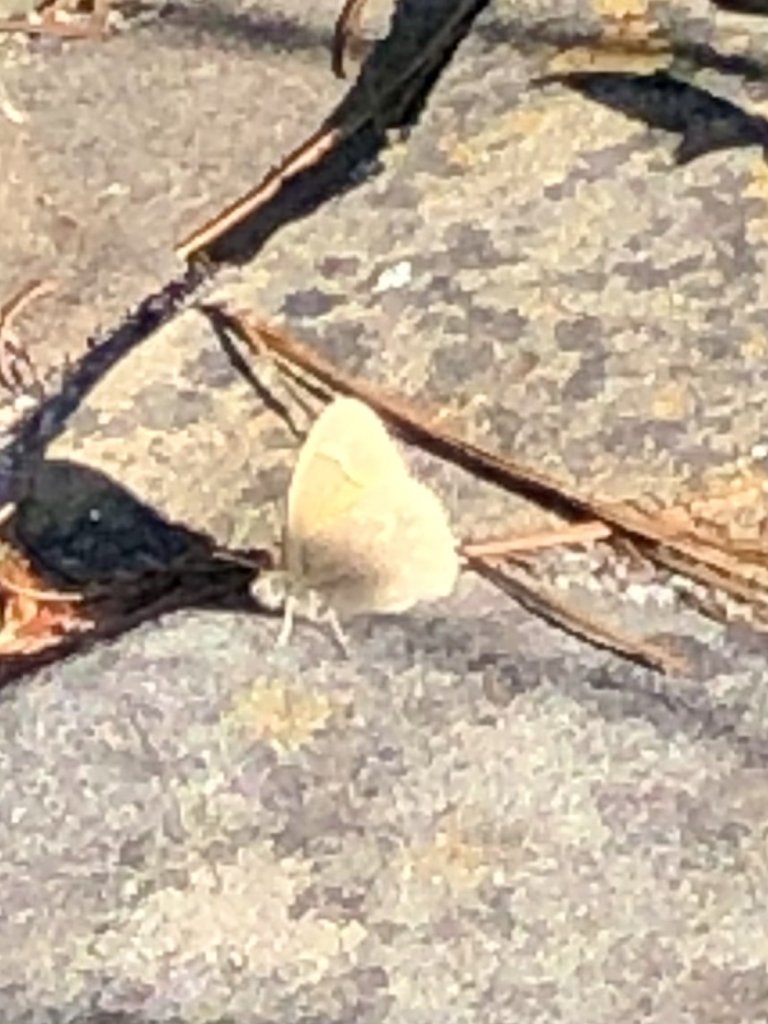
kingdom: Animalia
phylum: Arthropoda
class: Insecta
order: Lepidoptera
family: Nymphalidae
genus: Coenonympha
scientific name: Coenonympha tullia
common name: Large Heath
